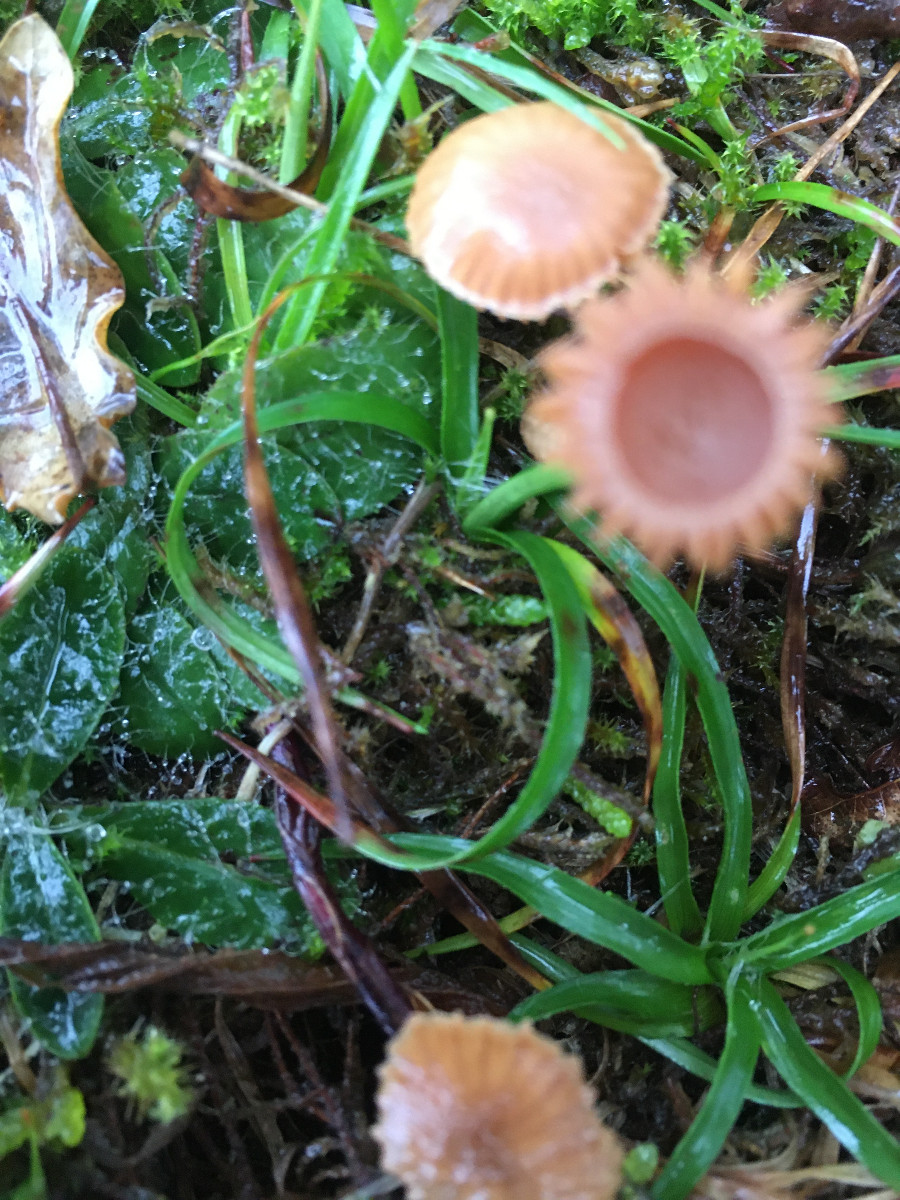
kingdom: Fungi
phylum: Basidiomycota
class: Agaricomycetes
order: Agaricales
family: Hymenogastraceae
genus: Galerina
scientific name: Galerina
